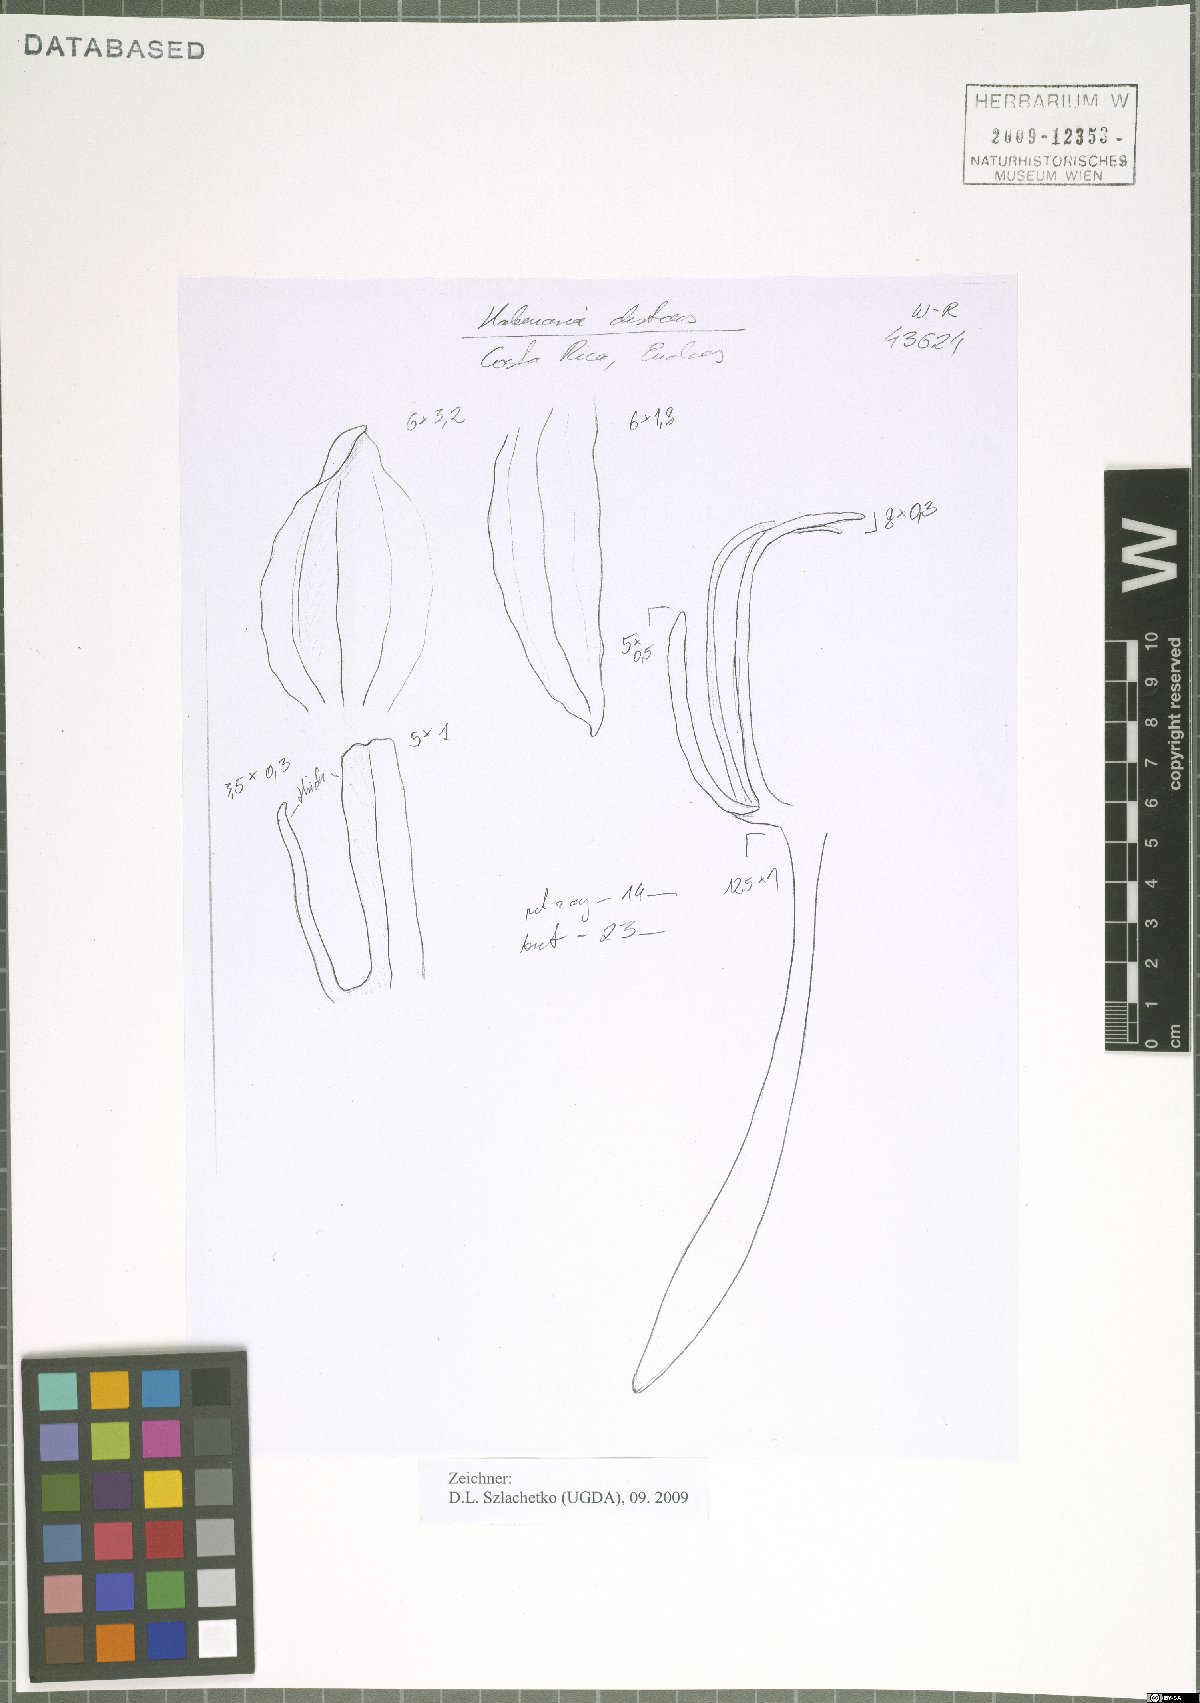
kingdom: Plantae
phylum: Tracheophyta
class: Liliopsida
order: Asparagales
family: Orchidaceae
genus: Habenaria
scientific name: Habenaria distans
